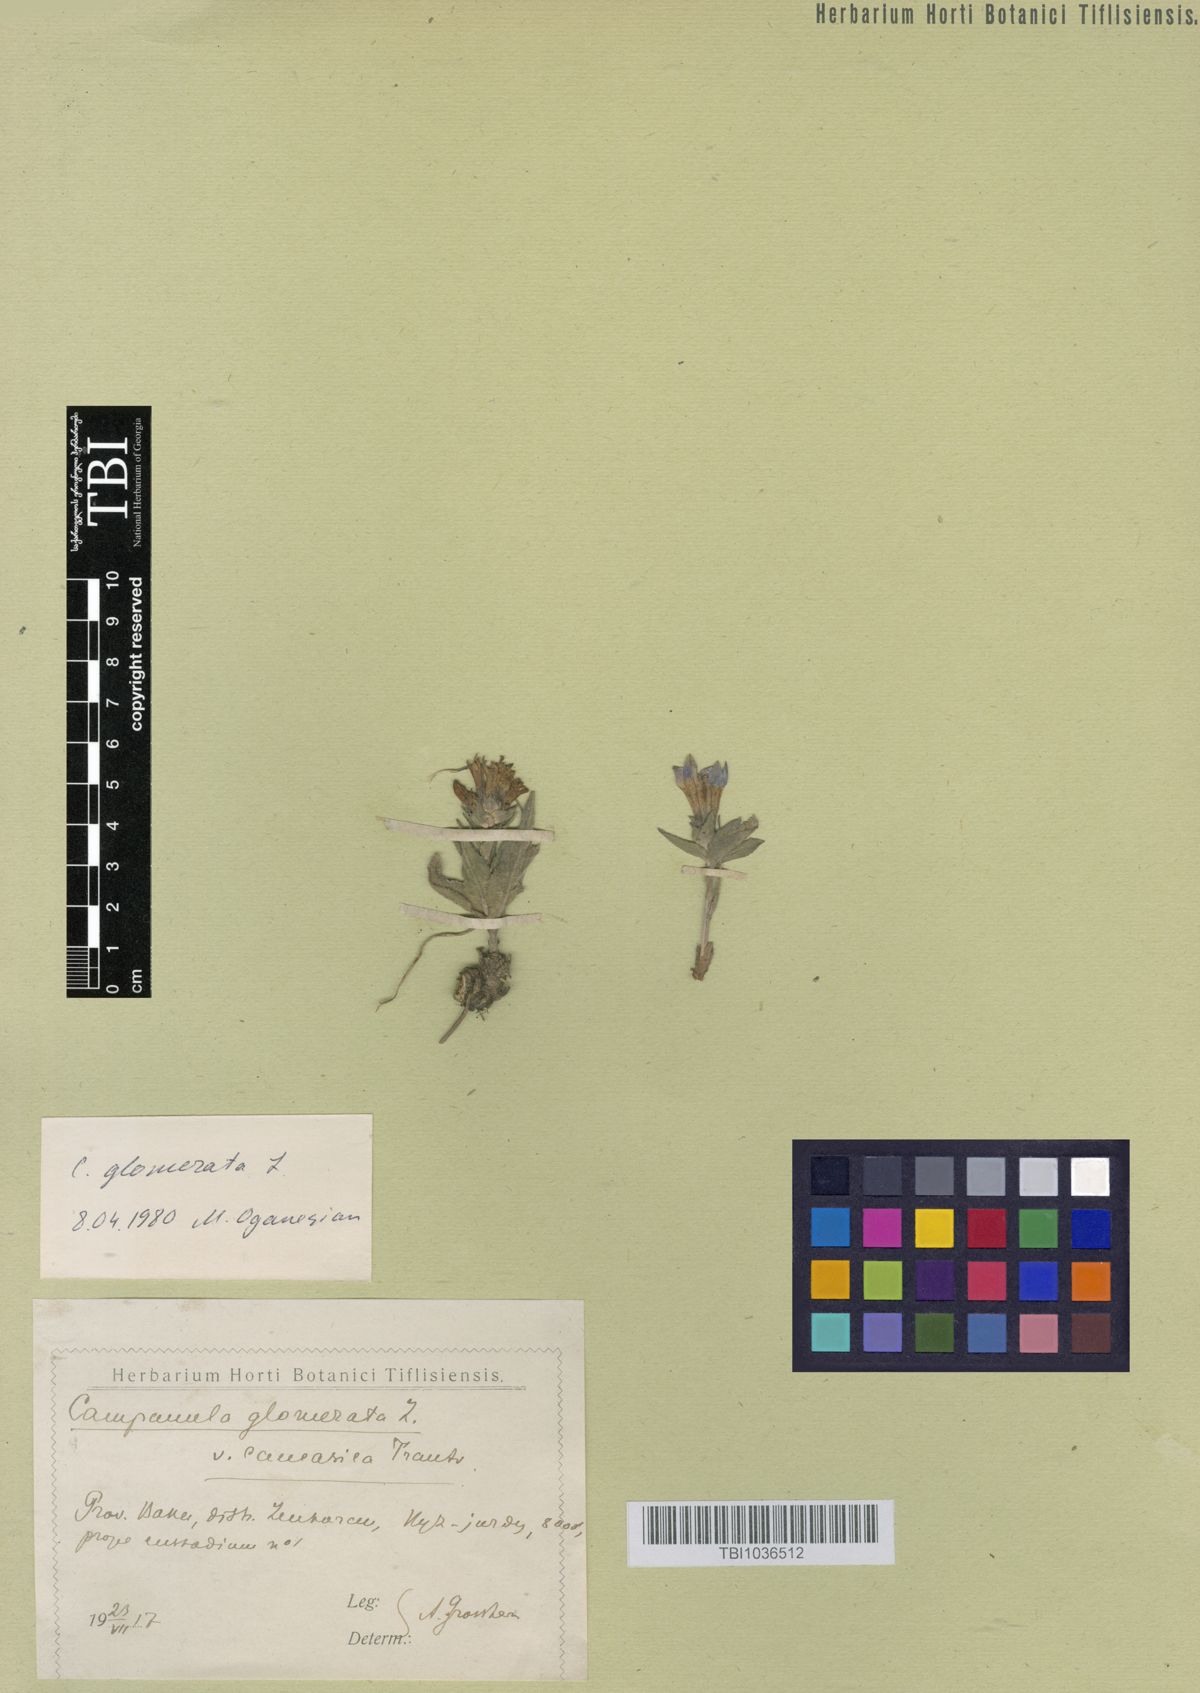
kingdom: Plantae
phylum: Tracheophyta
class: Magnoliopsida
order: Asterales
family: Campanulaceae
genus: Campanula
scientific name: Campanula glomerata
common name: Clustered bellflower
